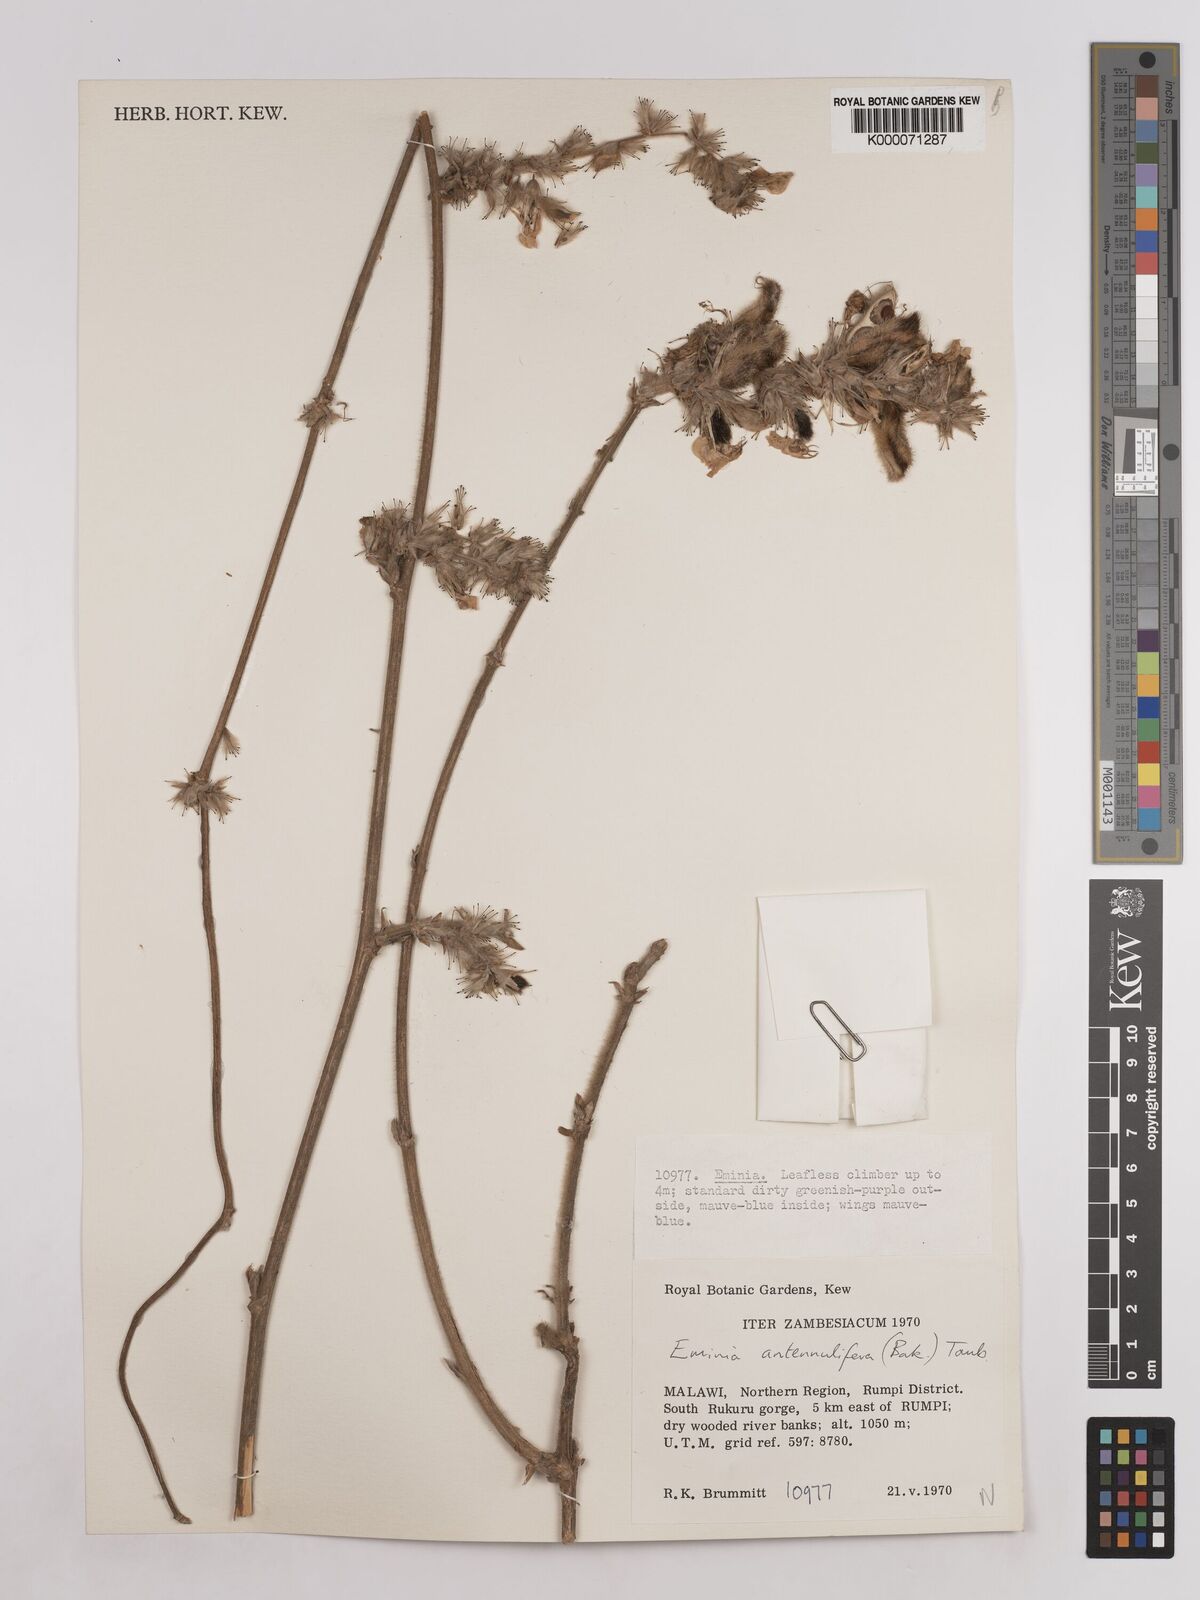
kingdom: Plantae
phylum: Tracheophyta
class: Magnoliopsida
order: Fabales
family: Fabaceae
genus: Eminia
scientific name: Eminia antennulifera
